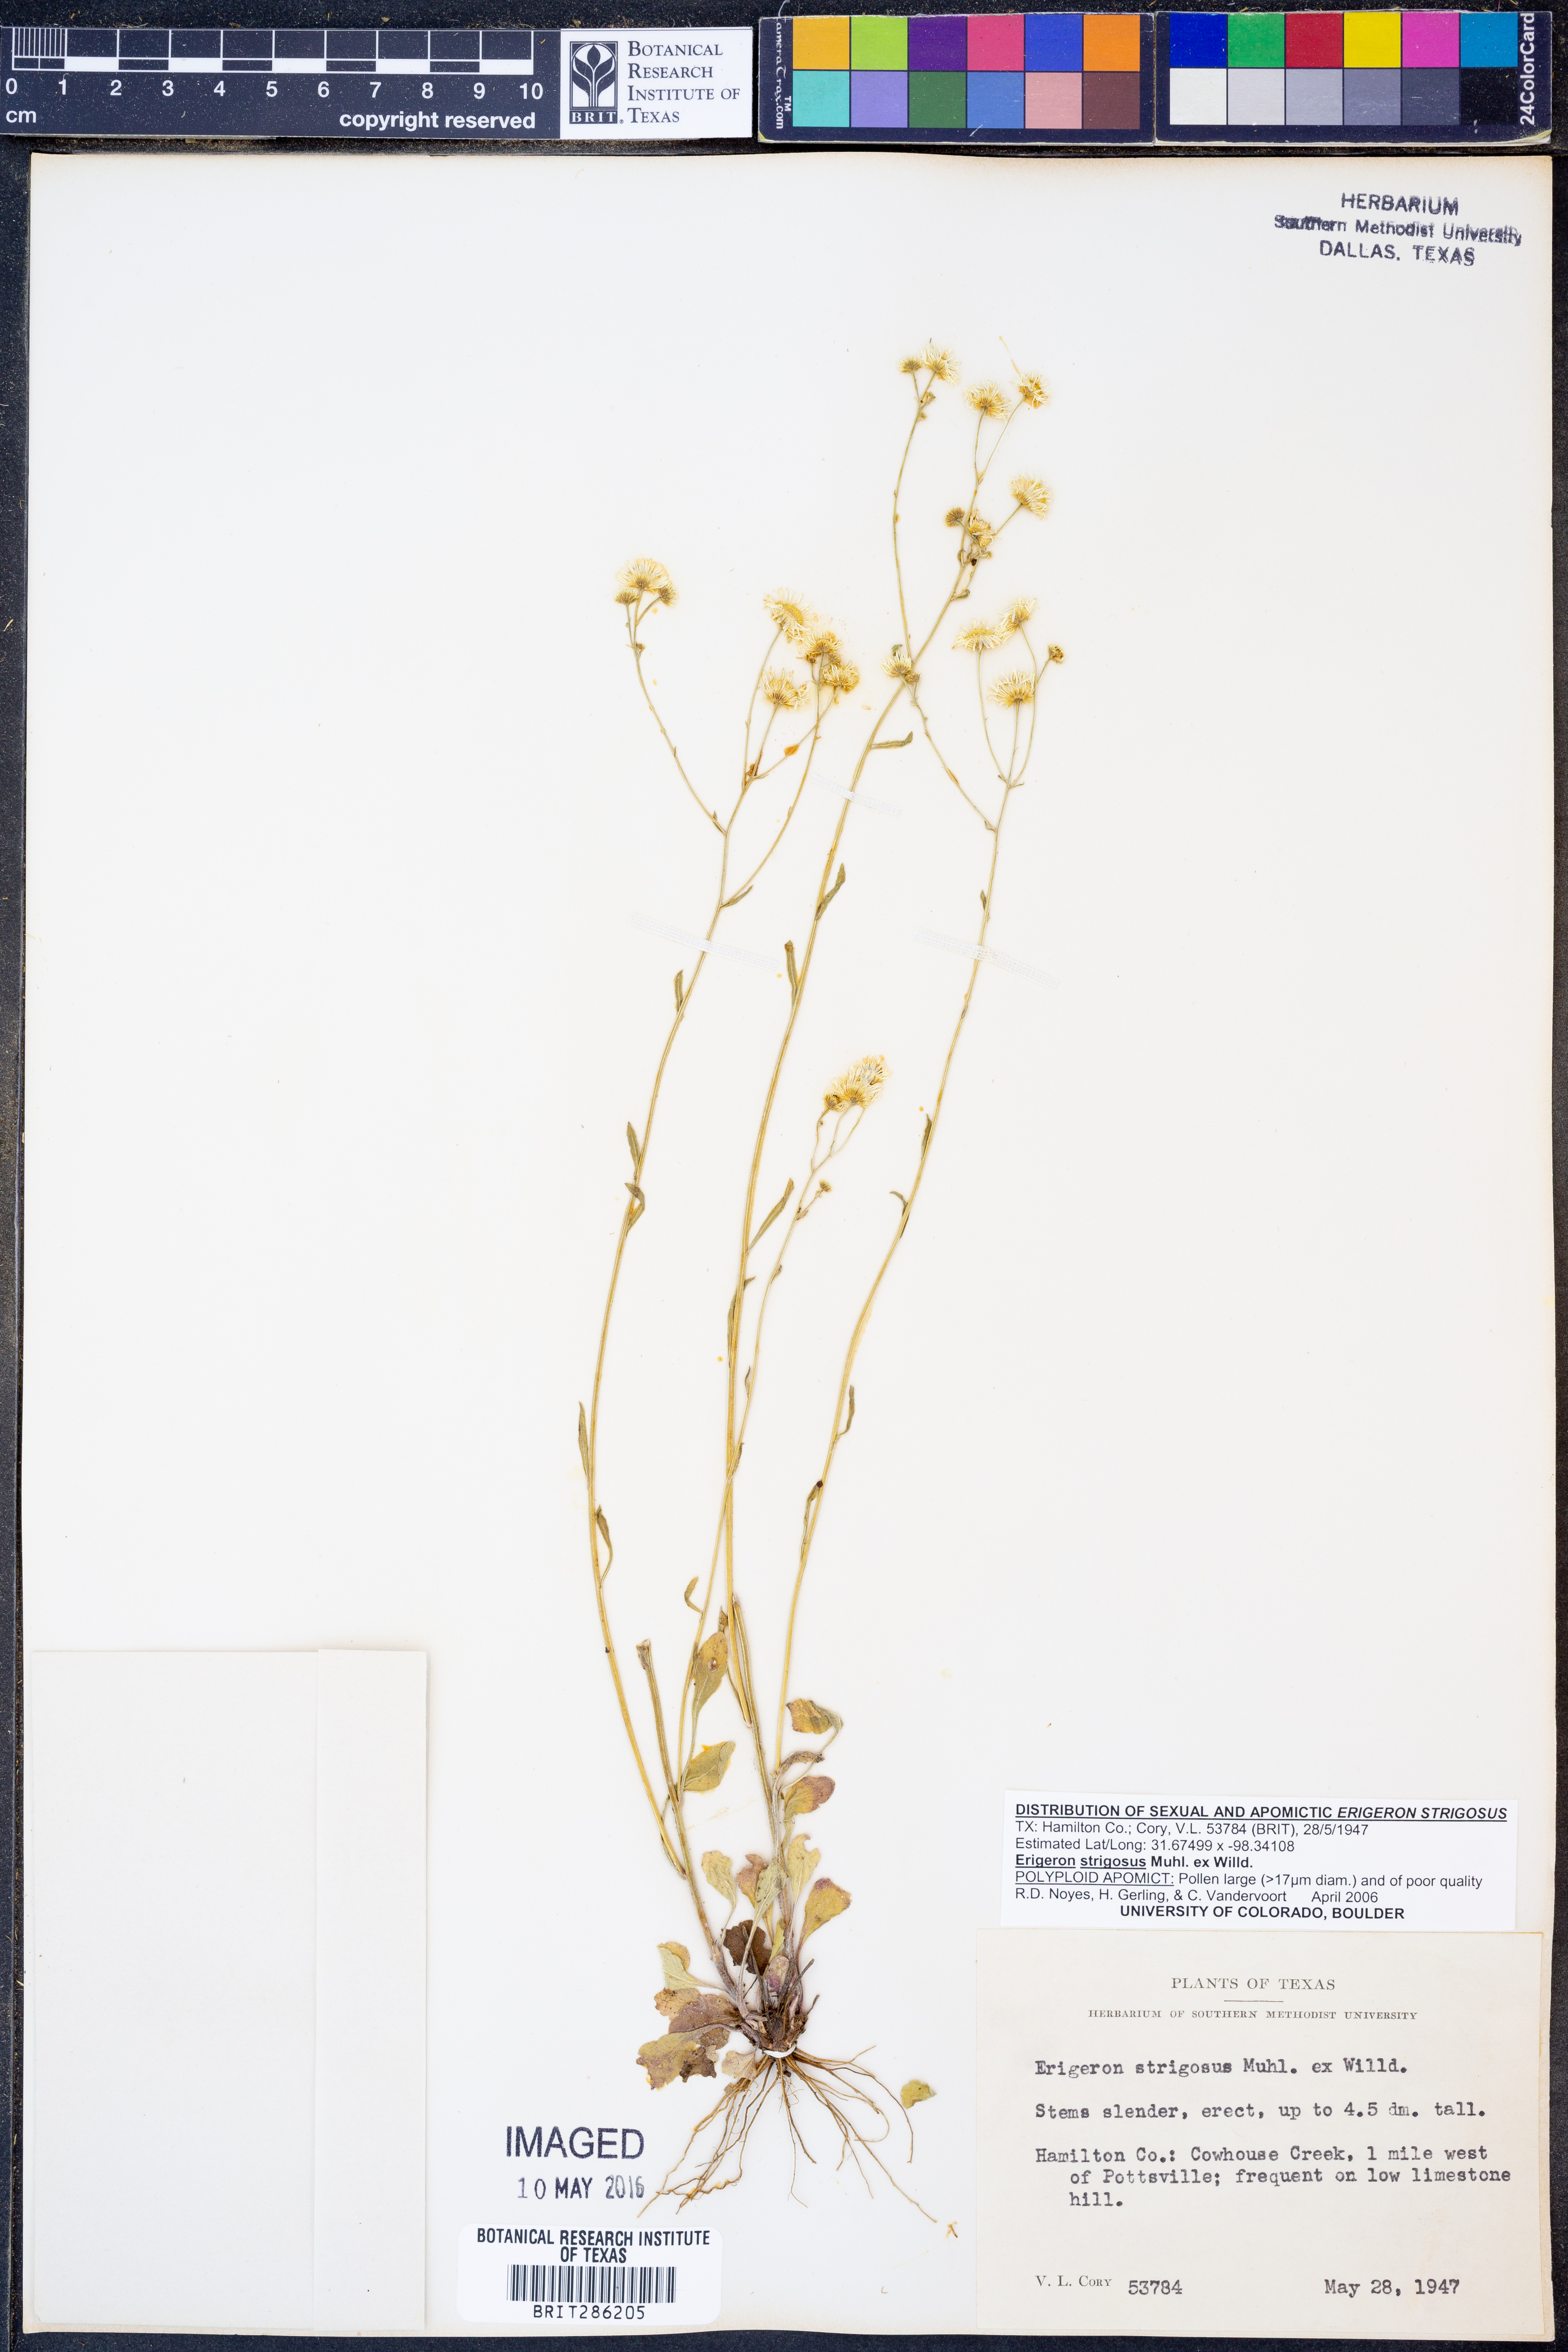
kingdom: Plantae
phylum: Tracheophyta
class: Magnoliopsida
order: Asterales
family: Asteraceae
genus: Erigeron
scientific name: Erigeron strigosus
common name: Common eastern fleabane
